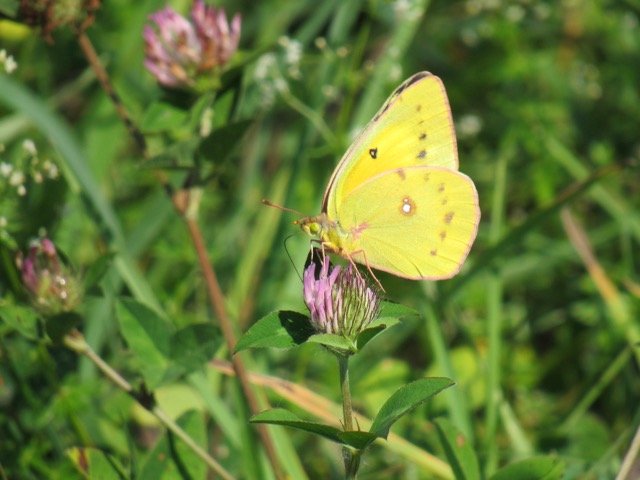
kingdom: Animalia
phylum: Arthropoda
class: Insecta
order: Lepidoptera
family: Pieridae
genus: Colias
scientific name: Colias eurytheme
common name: Orange Sulphur
